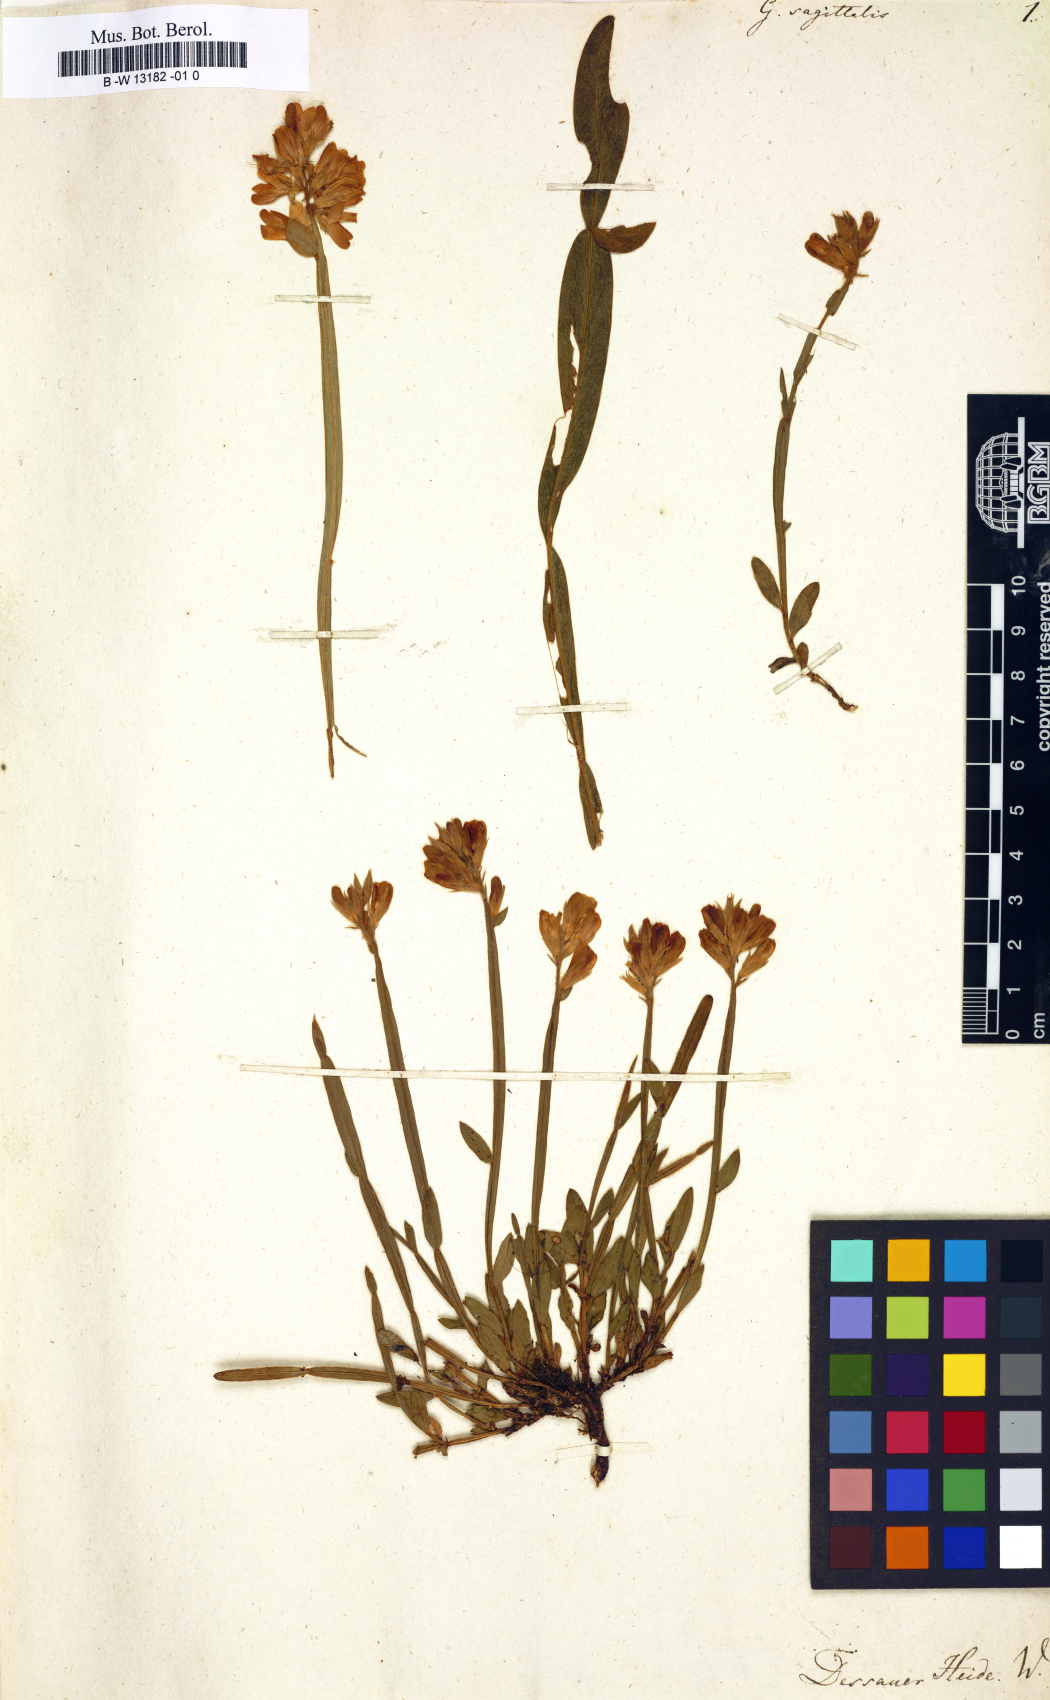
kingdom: Plantae
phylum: Tracheophyta
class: Magnoliopsida
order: Fabales
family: Fabaceae
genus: Genista
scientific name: Genista sagittalis
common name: Winged greenweed
